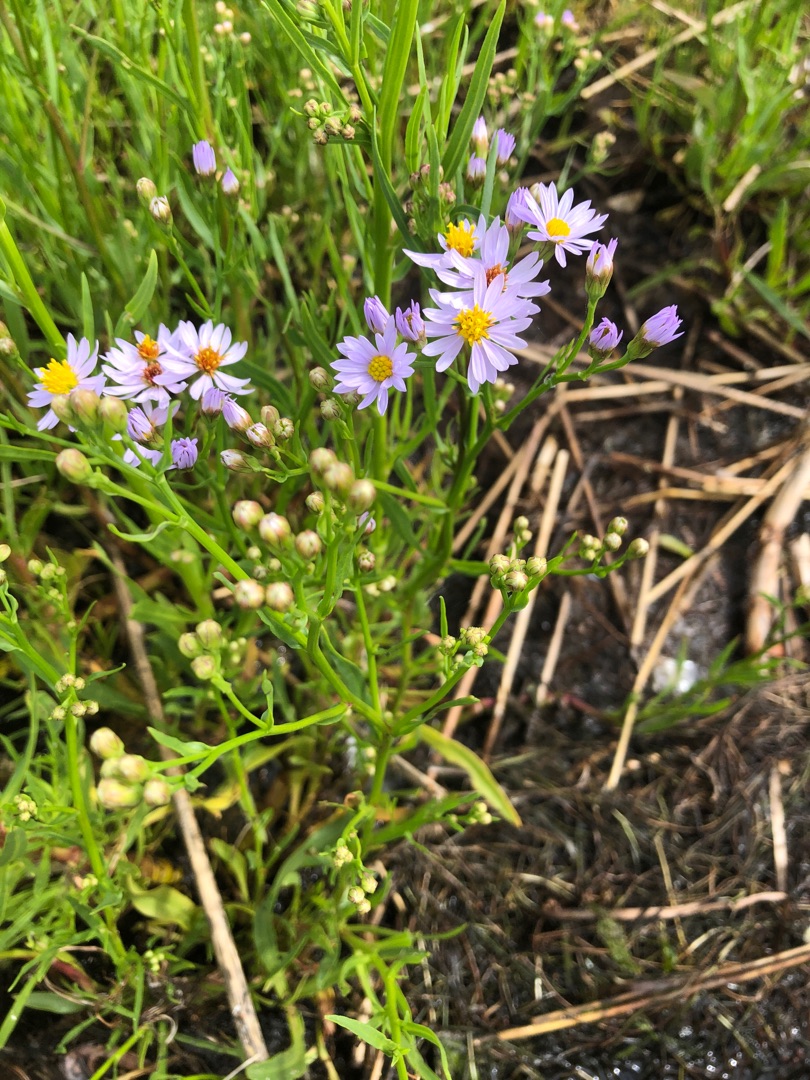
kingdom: Plantae
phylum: Tracheophyta
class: Magnoliopsida
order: Asterales
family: Asteraceae
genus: Tripolium
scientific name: Tripolium pannonicum
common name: Strandasters
